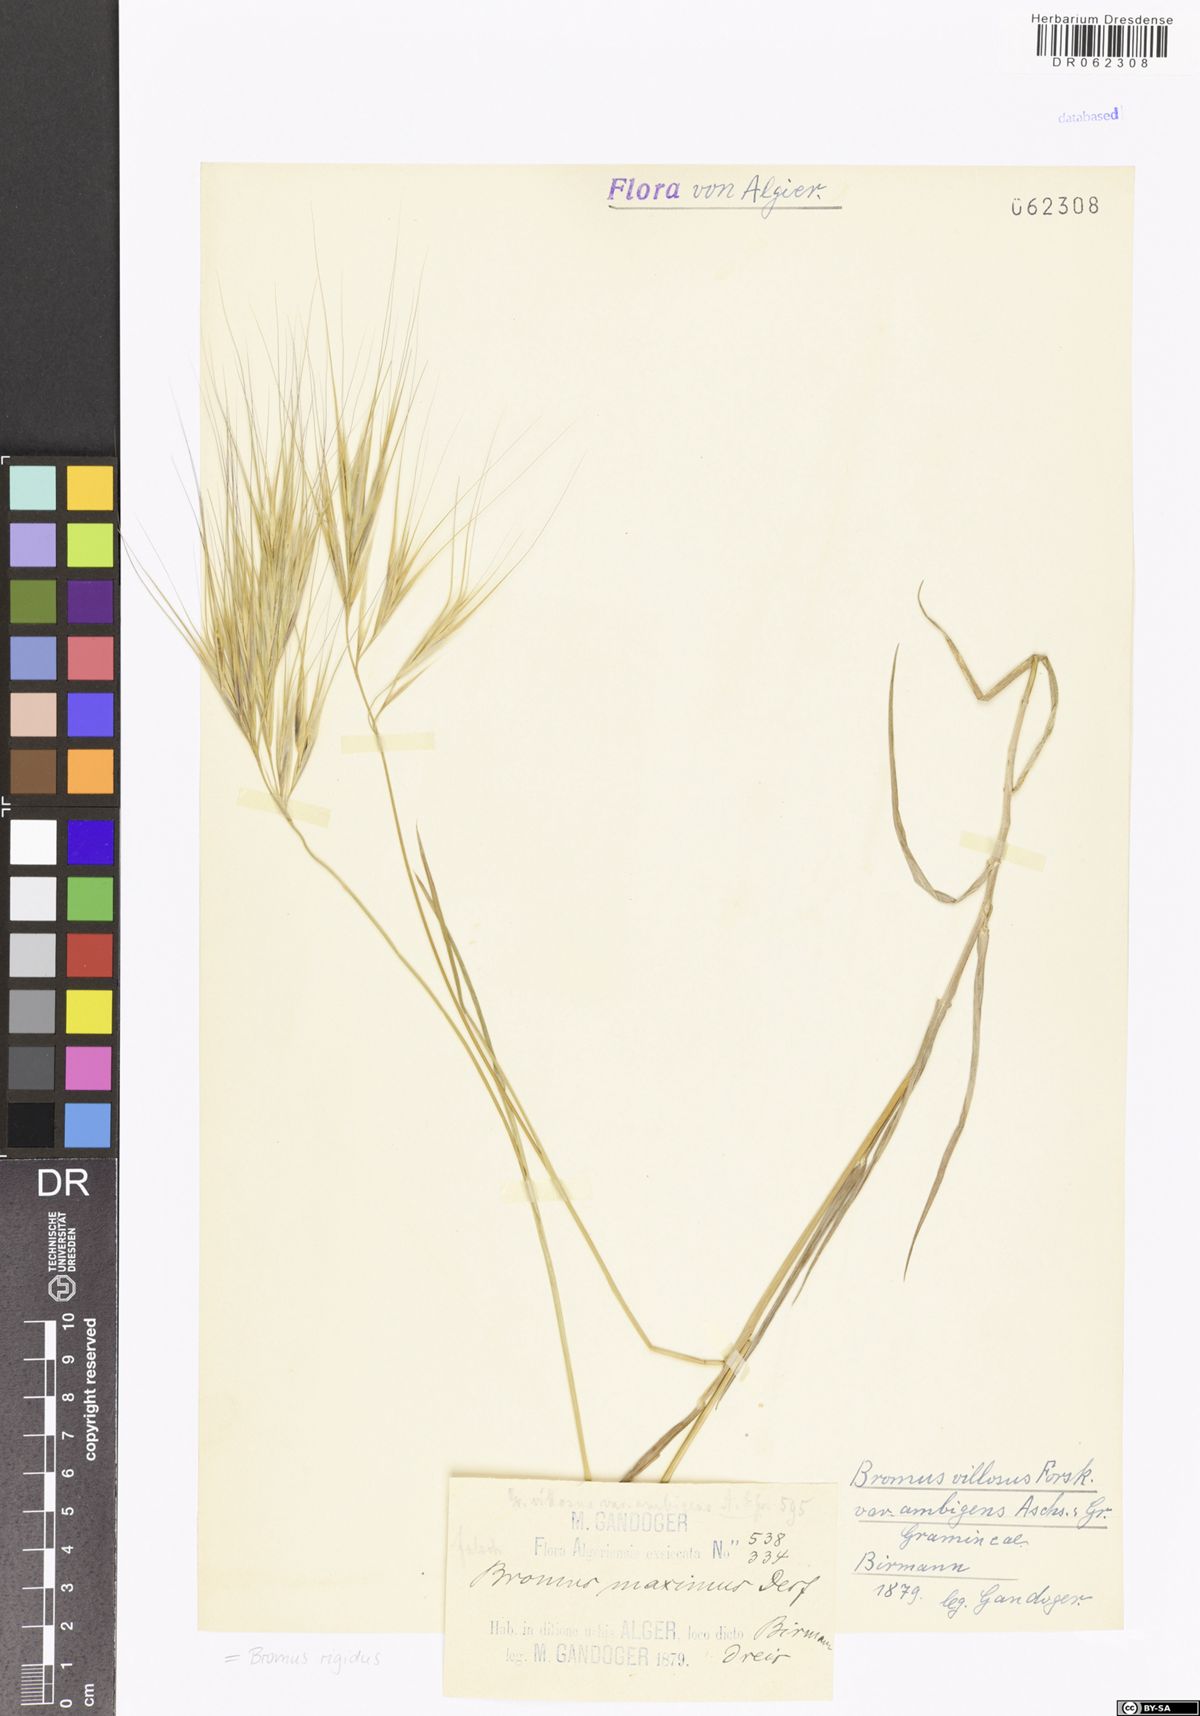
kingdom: Plantae
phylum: Tracheophyta
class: Liliopsida
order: Poales
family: Poaceae
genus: Bromus
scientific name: Bromus rigidus
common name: Ripgut brome
